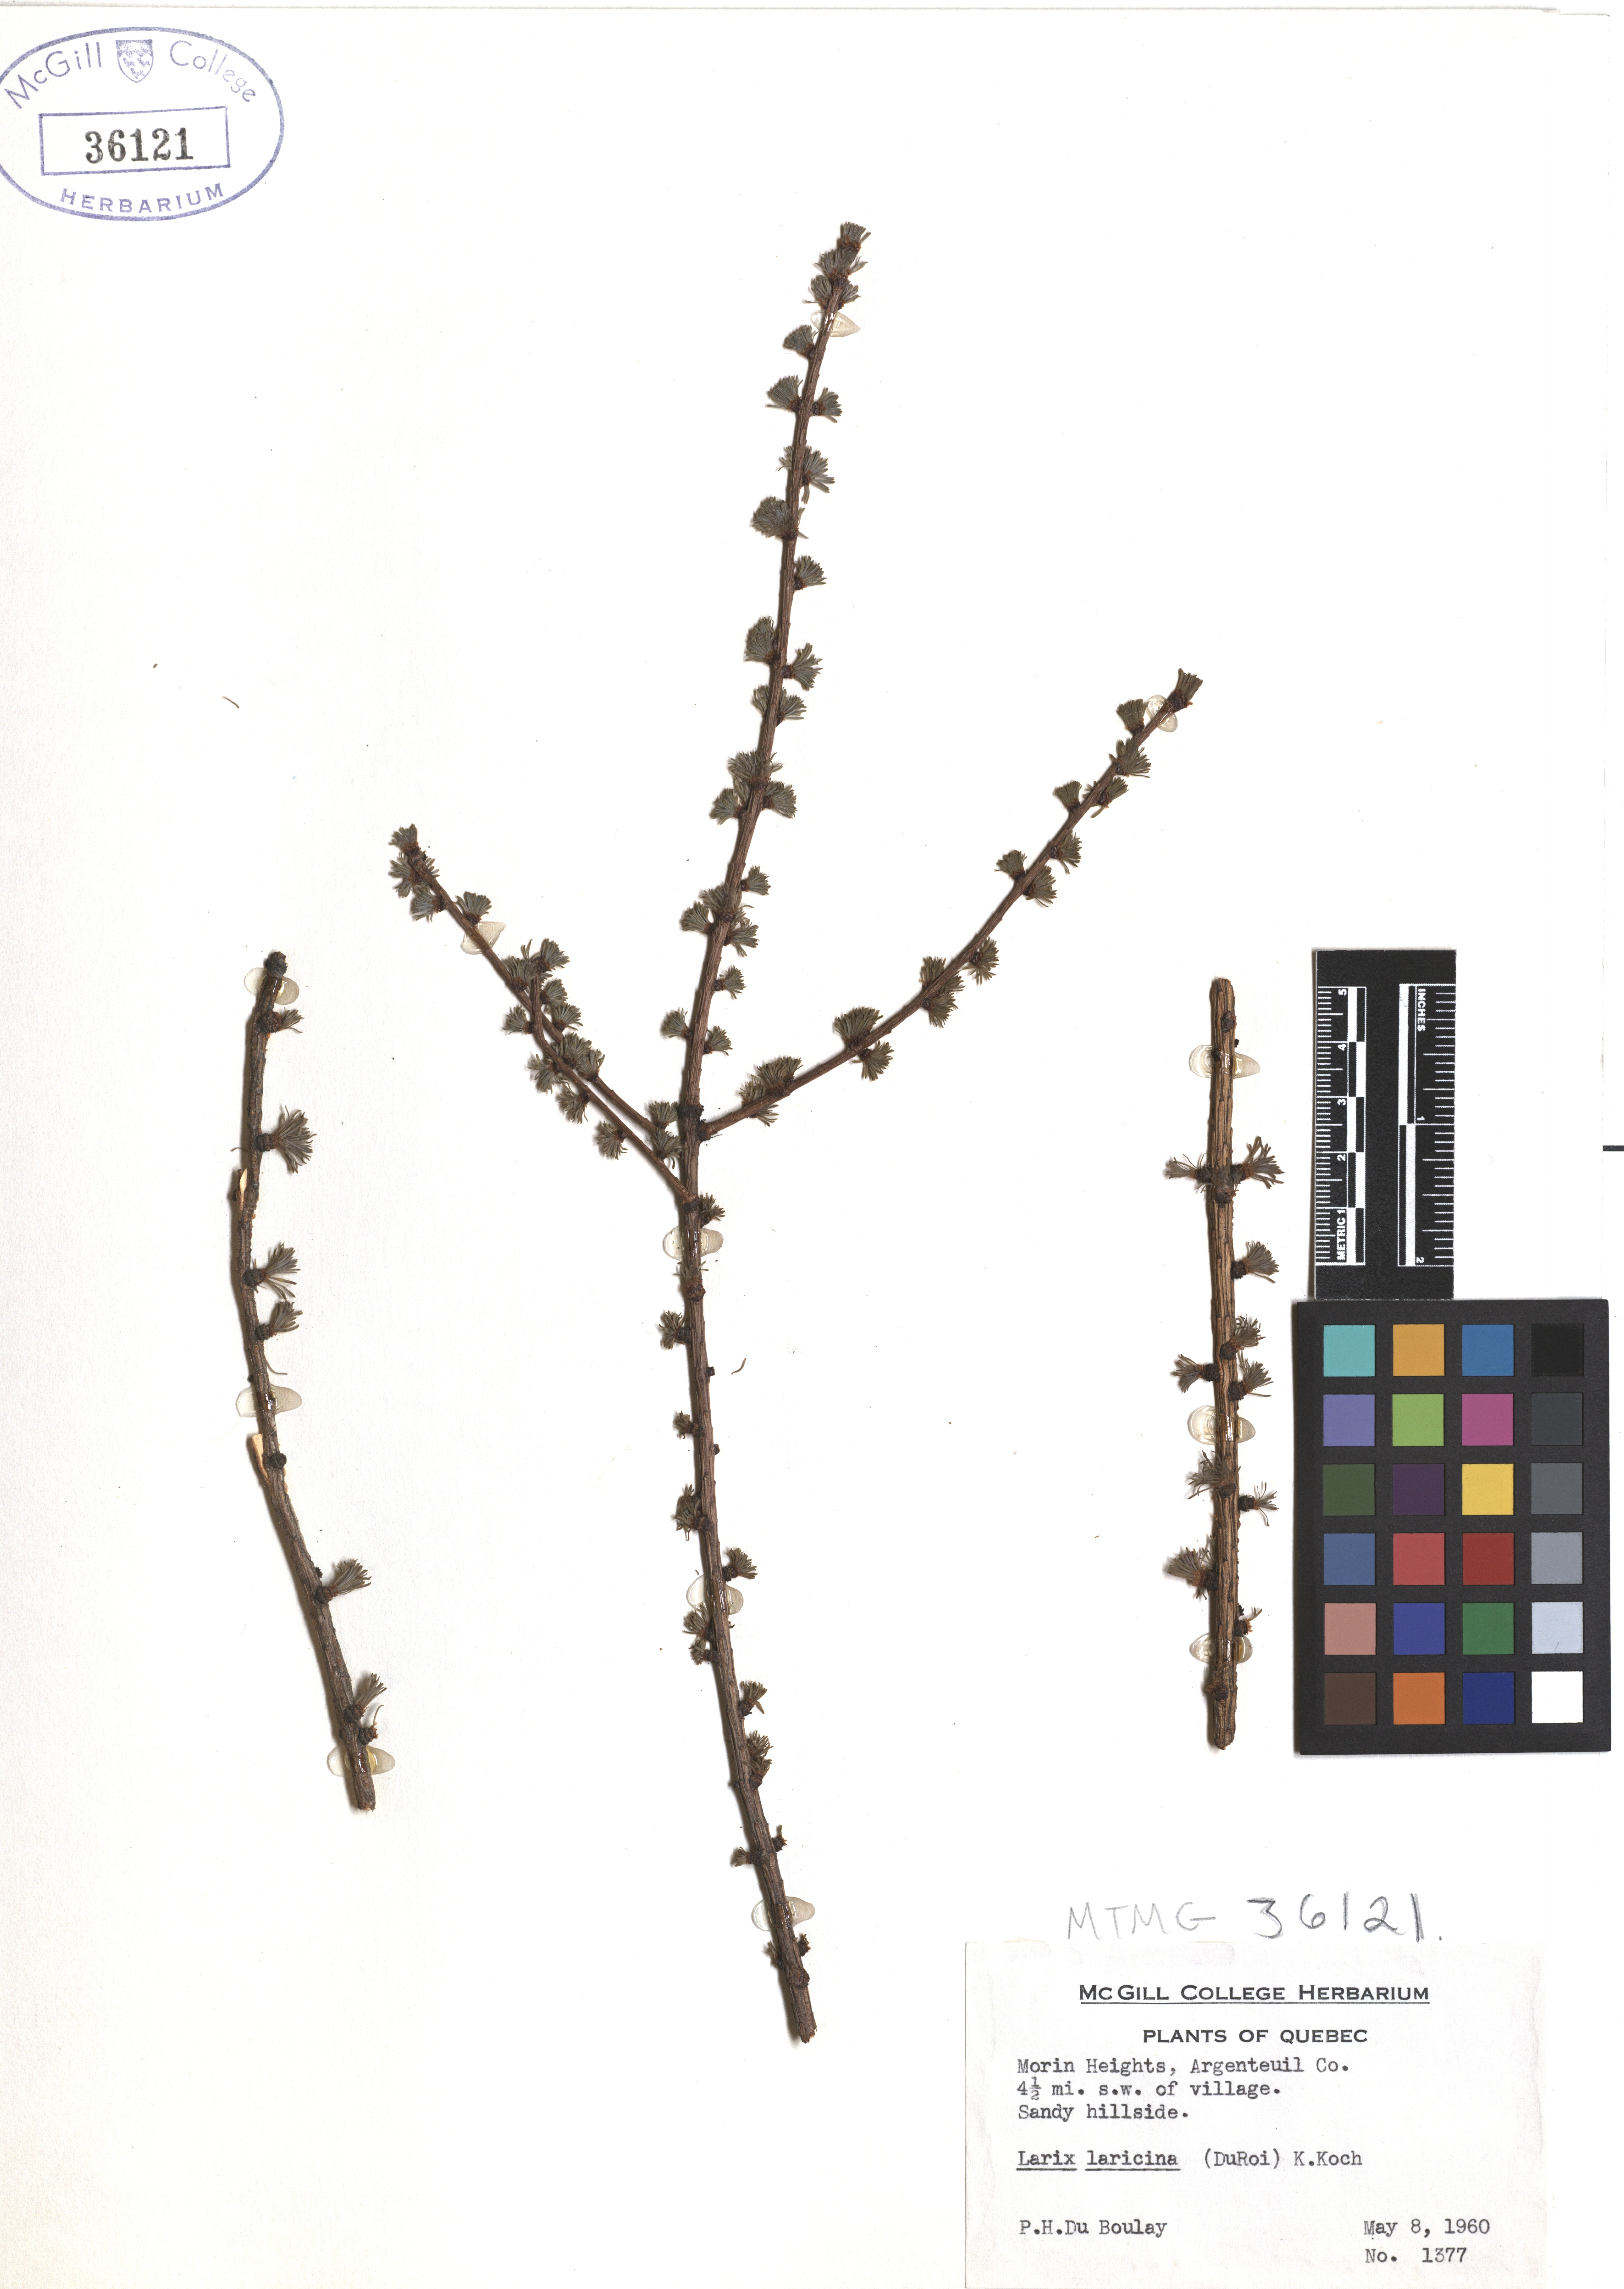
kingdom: Plantae
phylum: Tracheophyta
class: Pinopsida
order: Pinales
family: Pinaceae
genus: Larix
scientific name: Larix laricina
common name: American larch
